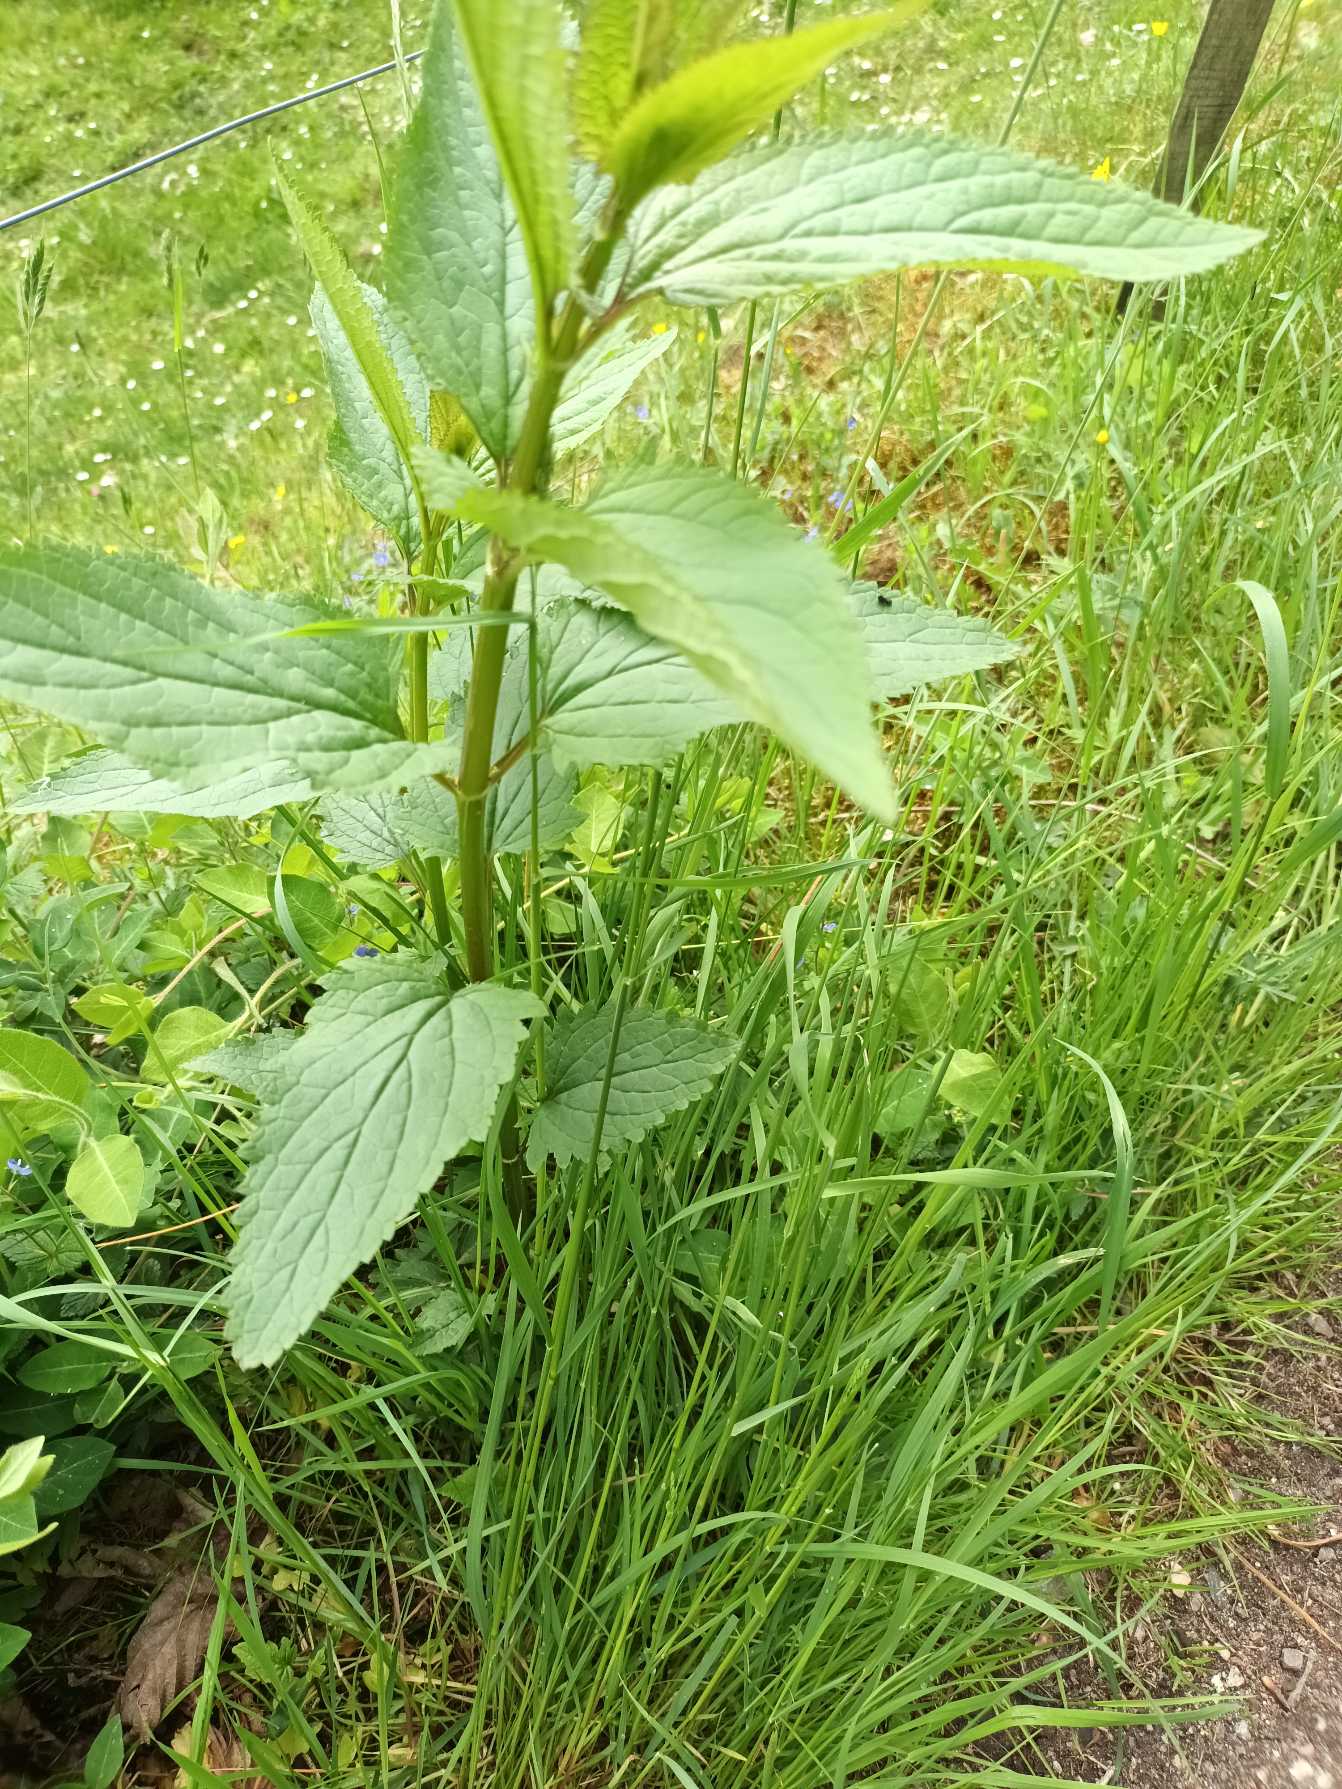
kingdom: Plantae
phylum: Tracheophyta
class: Magnoliopsida
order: Lamiales
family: Scrophulariaceae
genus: Scrophularia
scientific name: Scrophularia nodosa
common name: Knoldet brunrod
